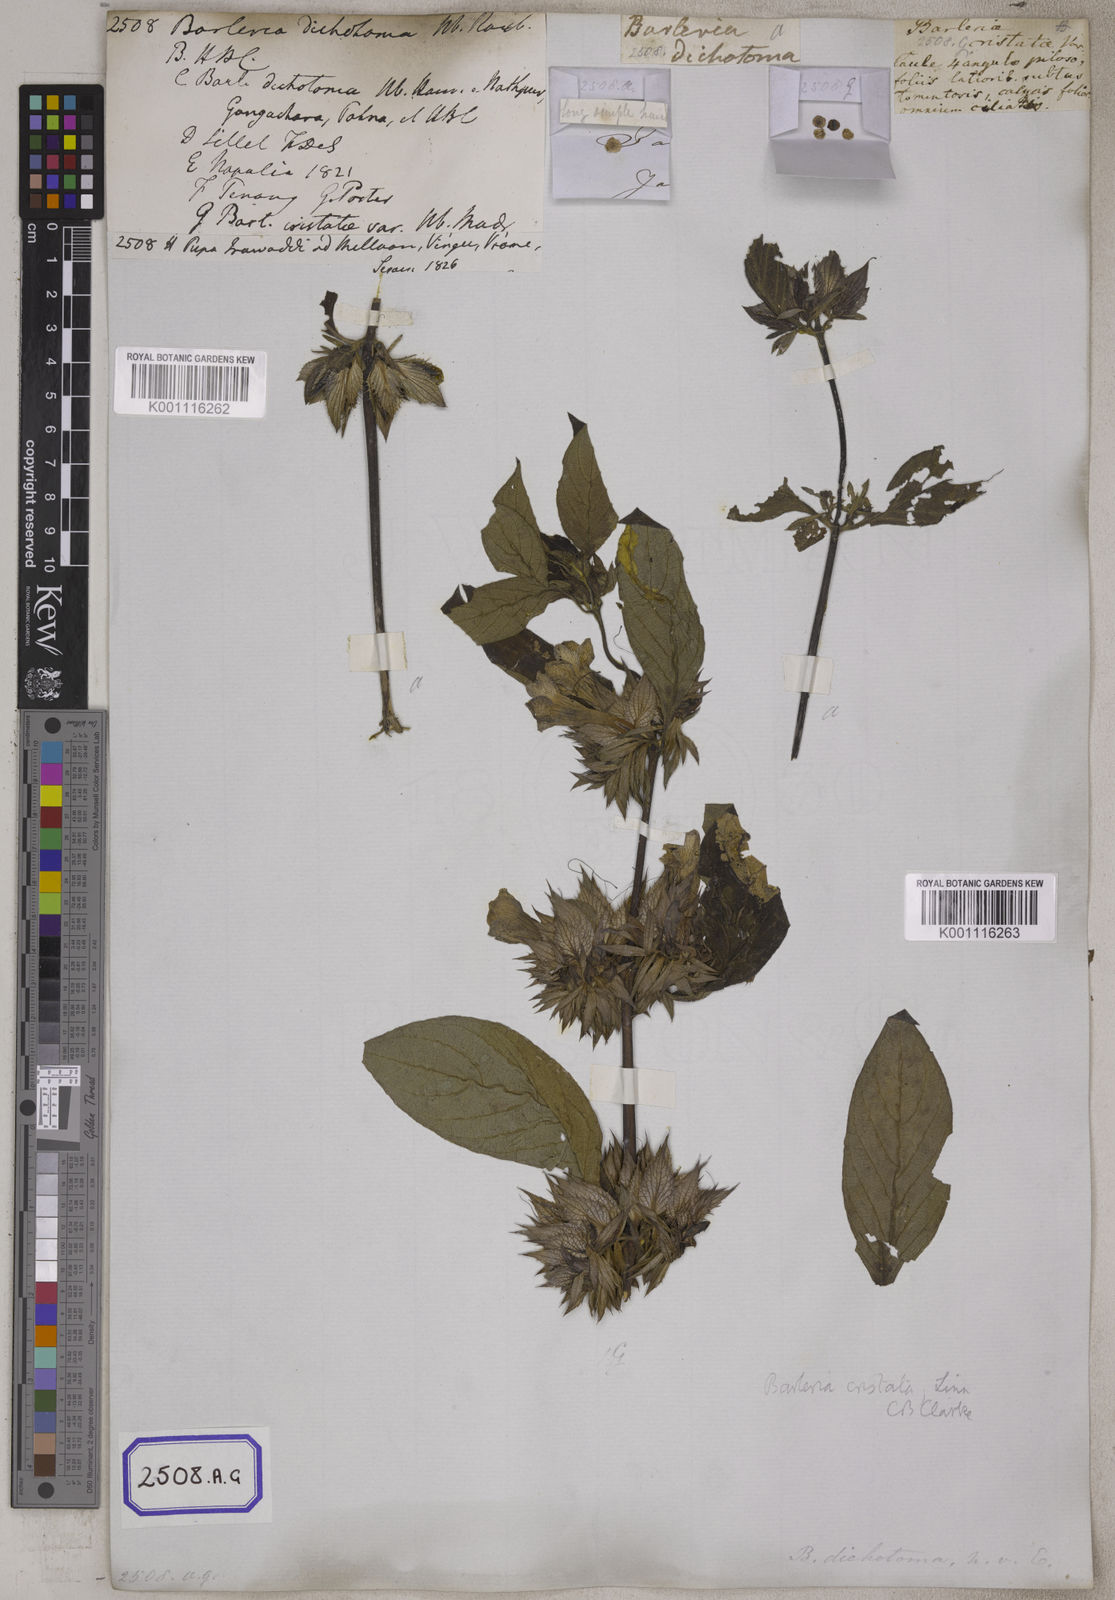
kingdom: Plantae
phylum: Tracheophyta
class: Magnoliopsida
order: Lamiales
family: Acanthaceae
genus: Barleria
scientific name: Barleria cristata
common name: Crested philippine violet
